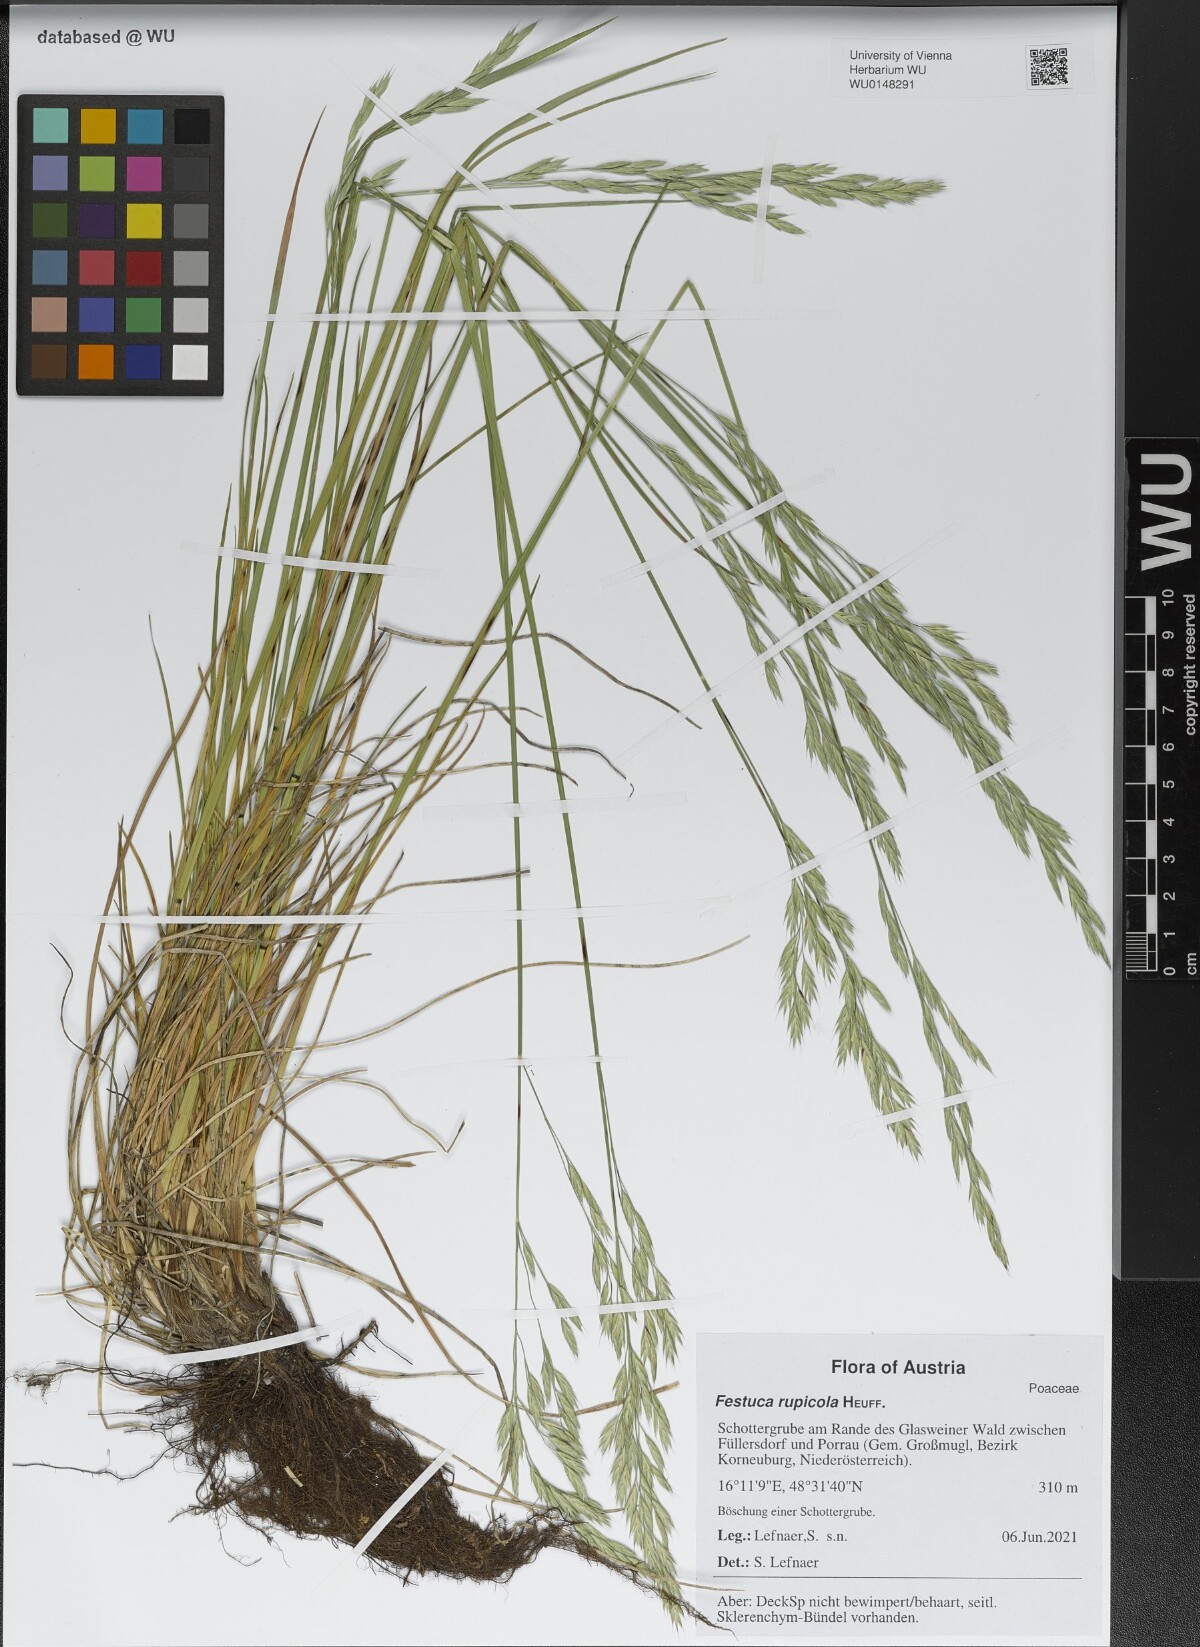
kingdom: Plantae
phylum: Tracheophyta
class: Liliopsida
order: Poales
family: Poaceae
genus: Festuca
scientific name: Festuca rupicola
